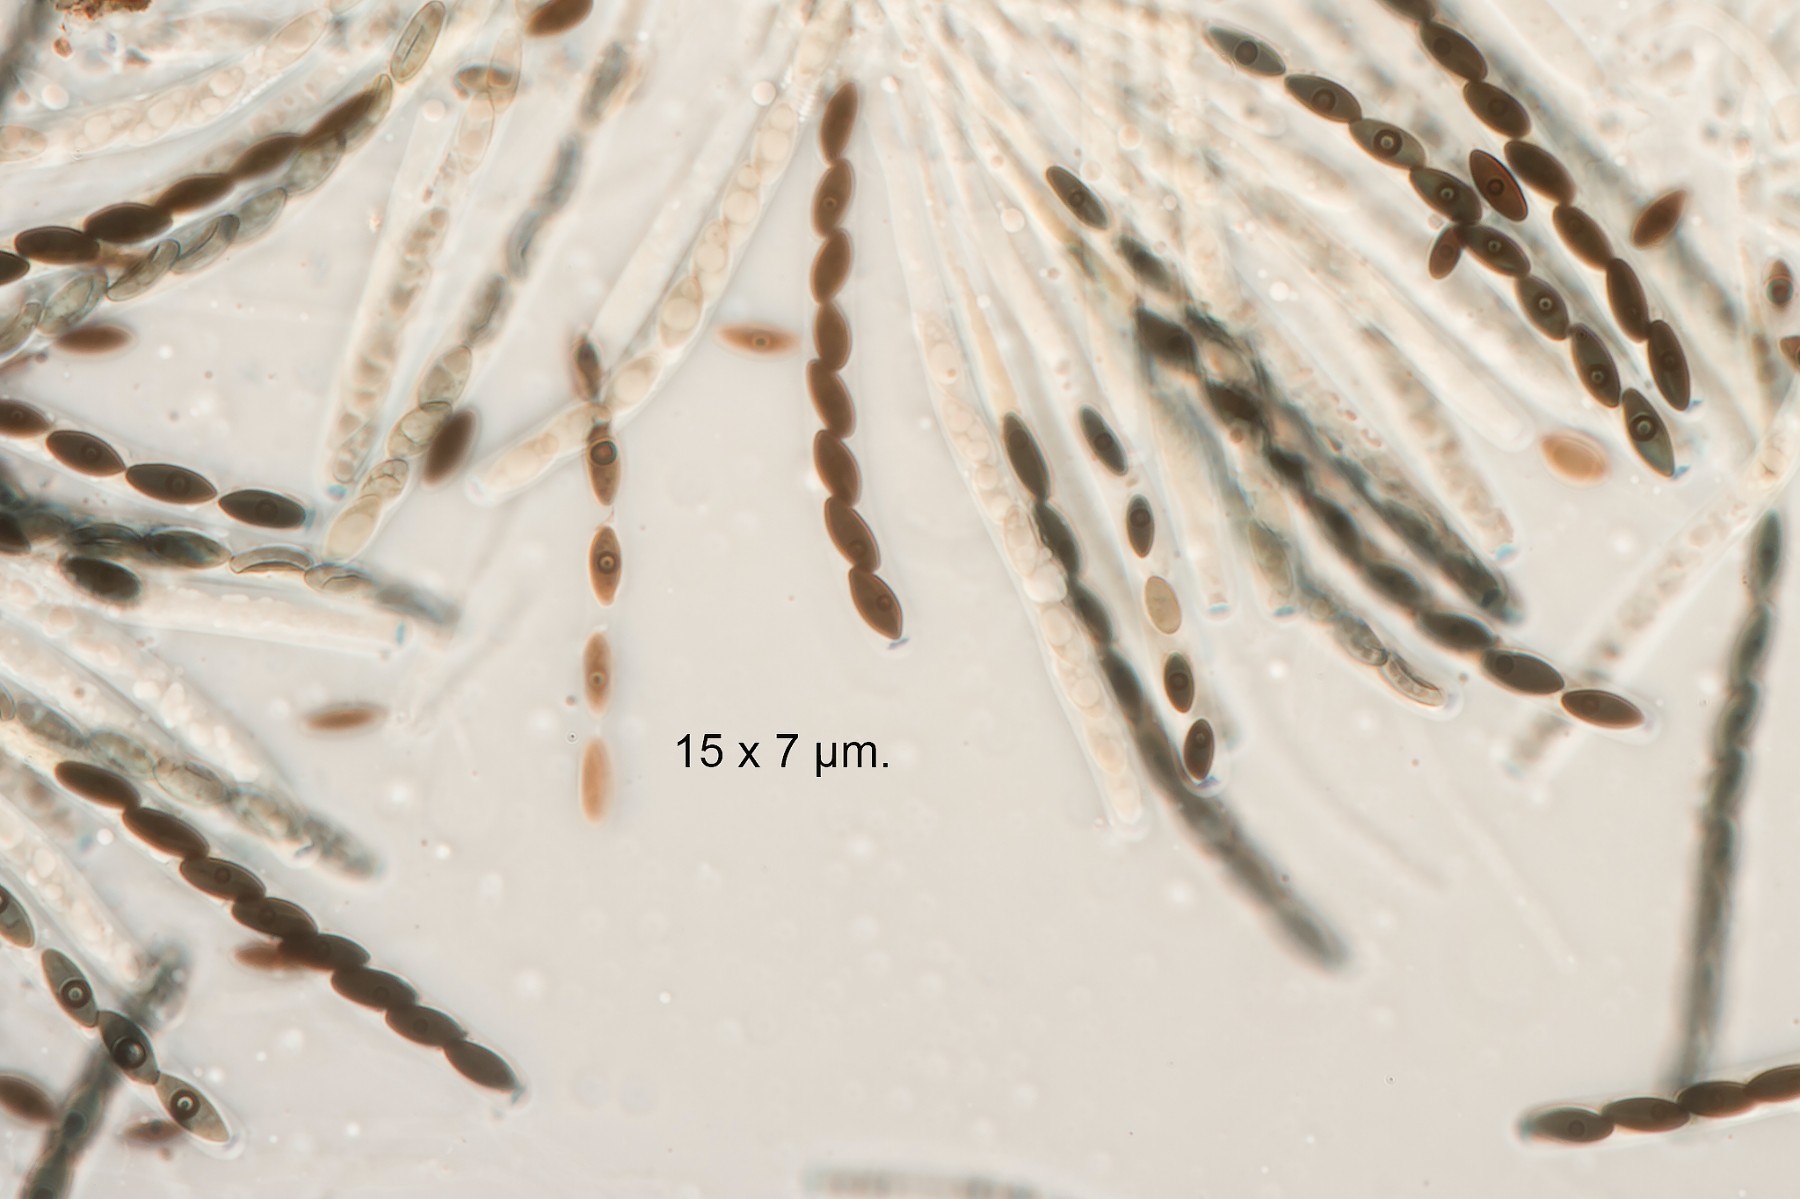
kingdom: Fungi
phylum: Ascomycota
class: Sordariomycetes
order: Xylariales
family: Lopadostomataceae
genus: Lopadostoma
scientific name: Lopadostoma pouzarii
